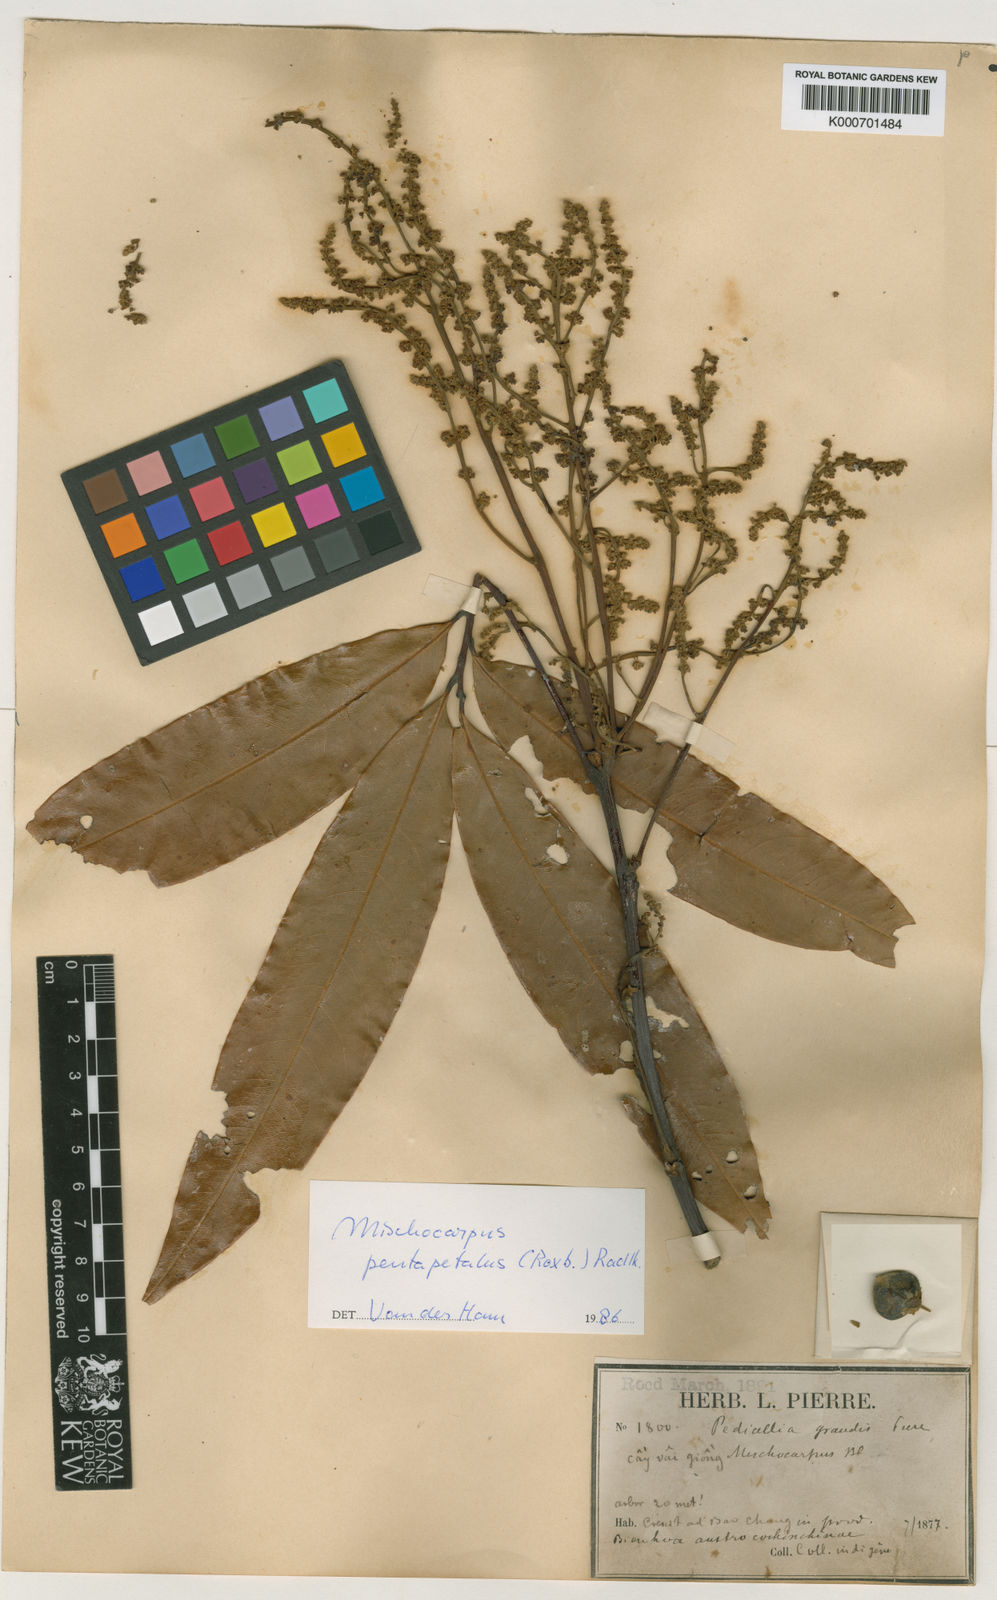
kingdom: Plantae
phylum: Tracheophyta
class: Magnoliopsida
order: Sapindales
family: Sapindaceae
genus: Mischocarpus
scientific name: Mischocarpus pentapetalus
